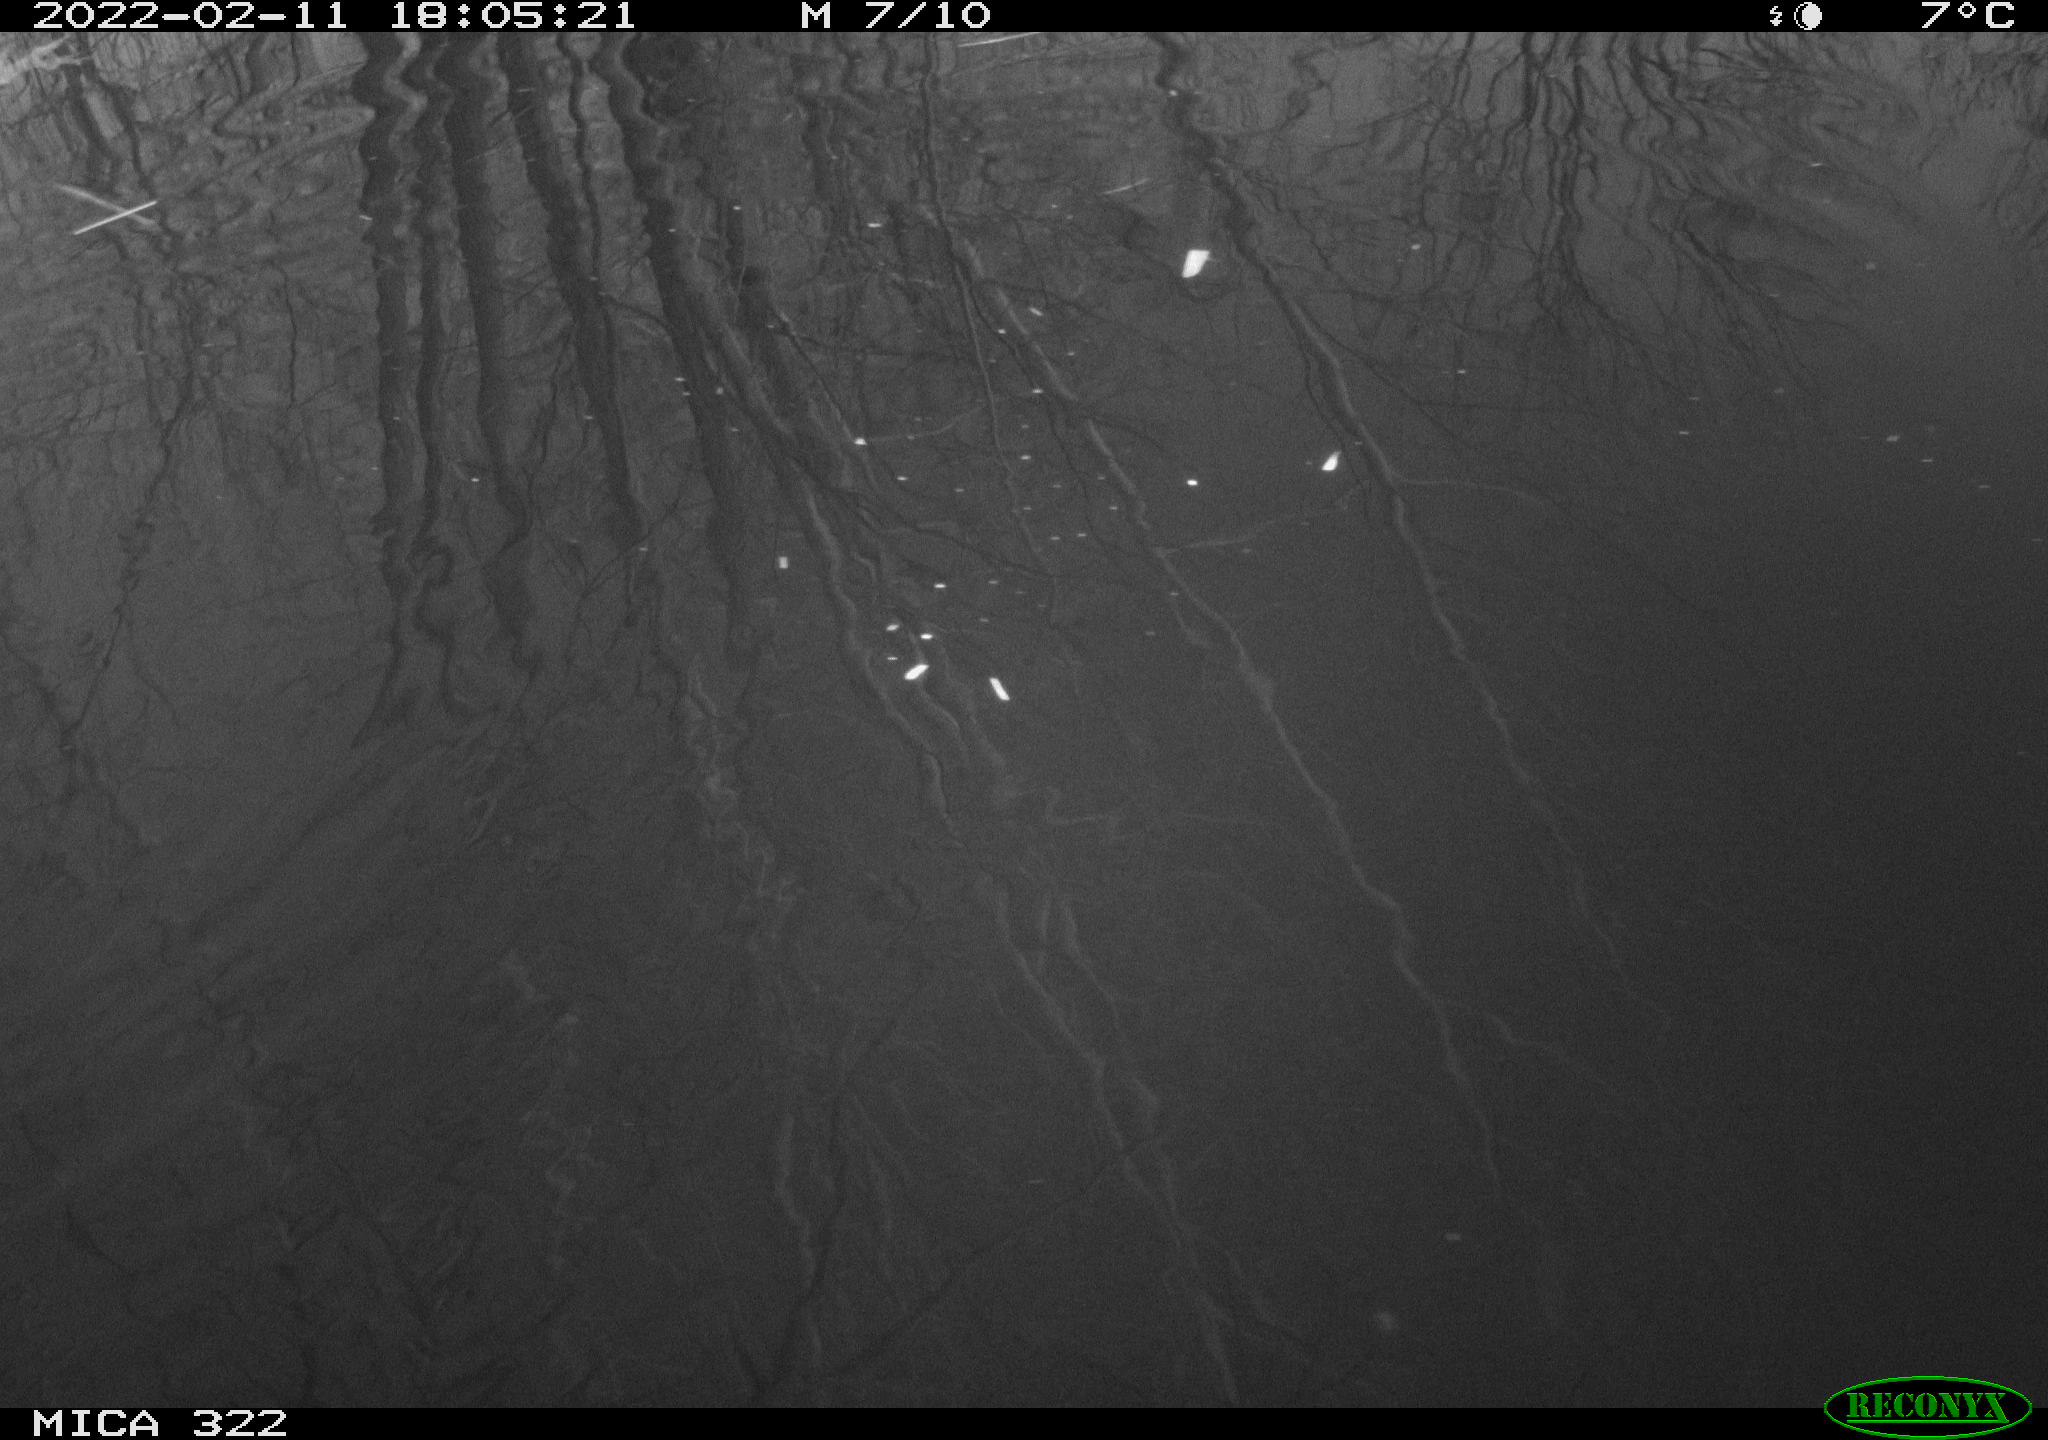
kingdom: Animalia
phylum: Chordata
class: Aves
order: Gruiformes
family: Rallidae
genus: Gallinula
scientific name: Gallinula chloropus
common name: Common moorhen
